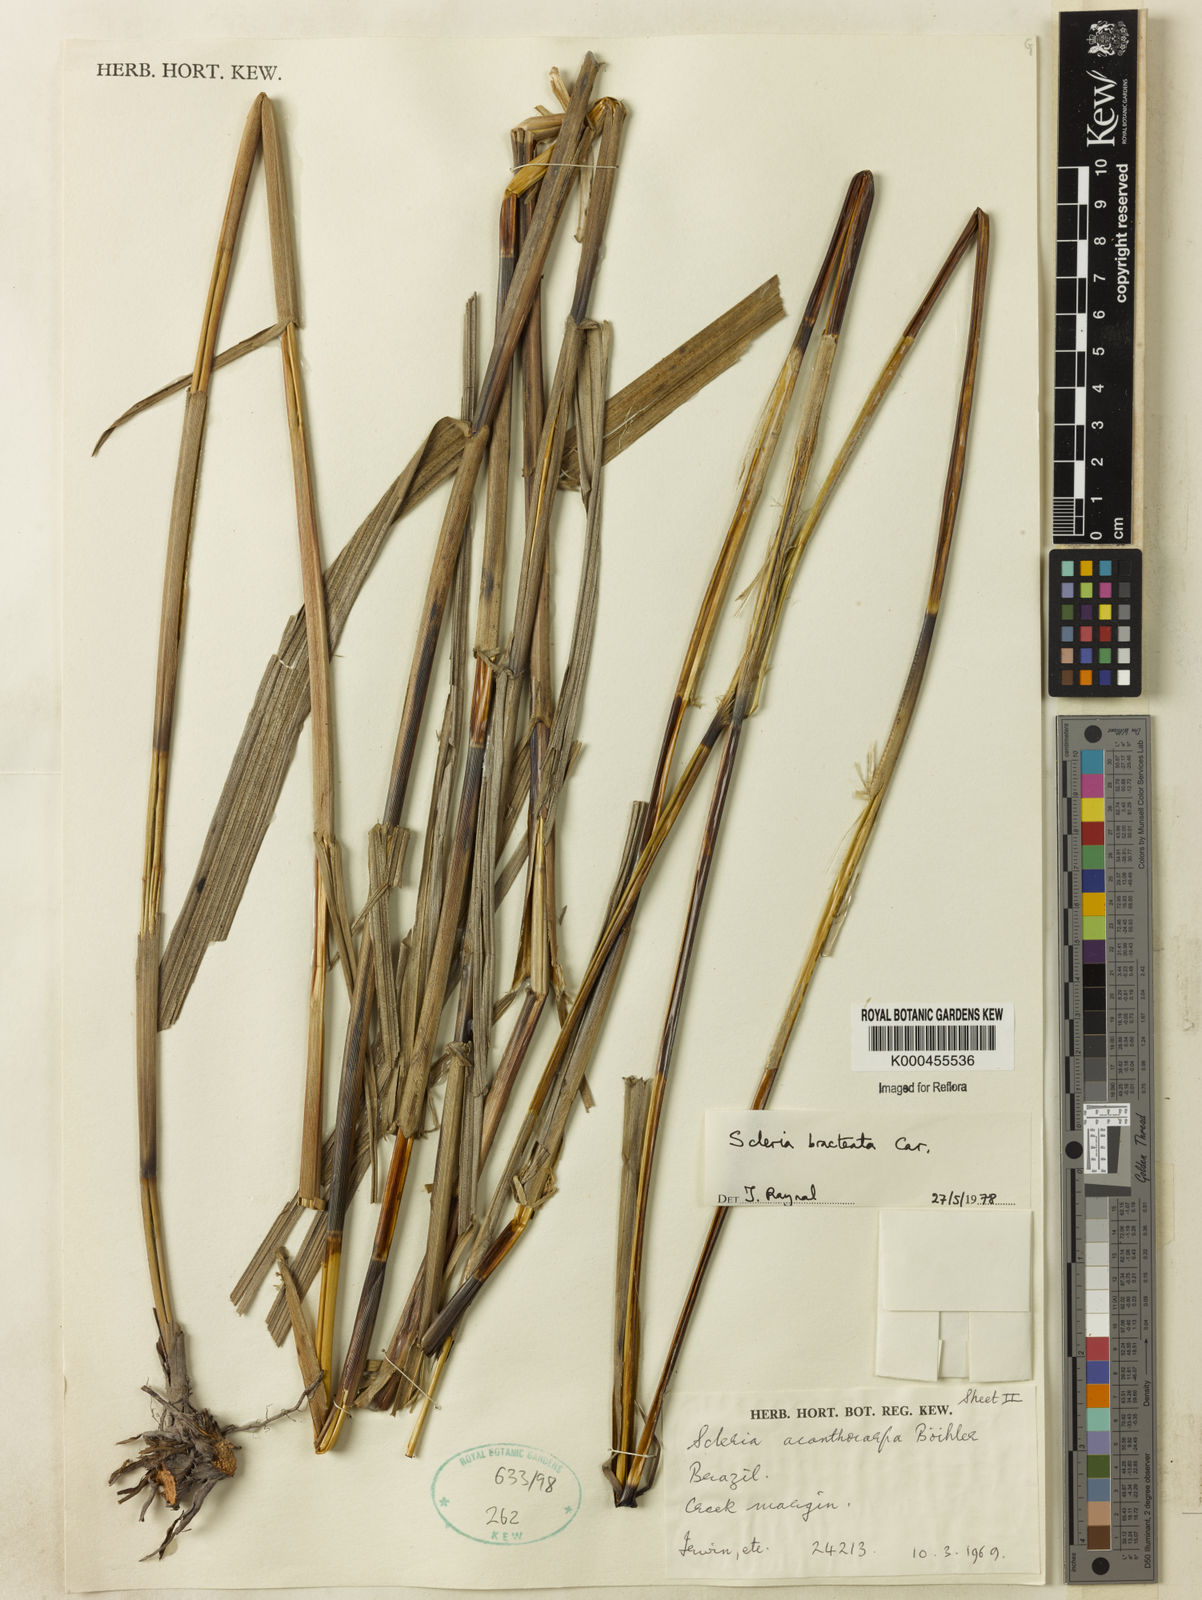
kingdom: Plantae
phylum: Tracheophyta
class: Liliopsida
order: Poales
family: Cyperaceae
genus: Scleria
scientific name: Scleria bracteata
